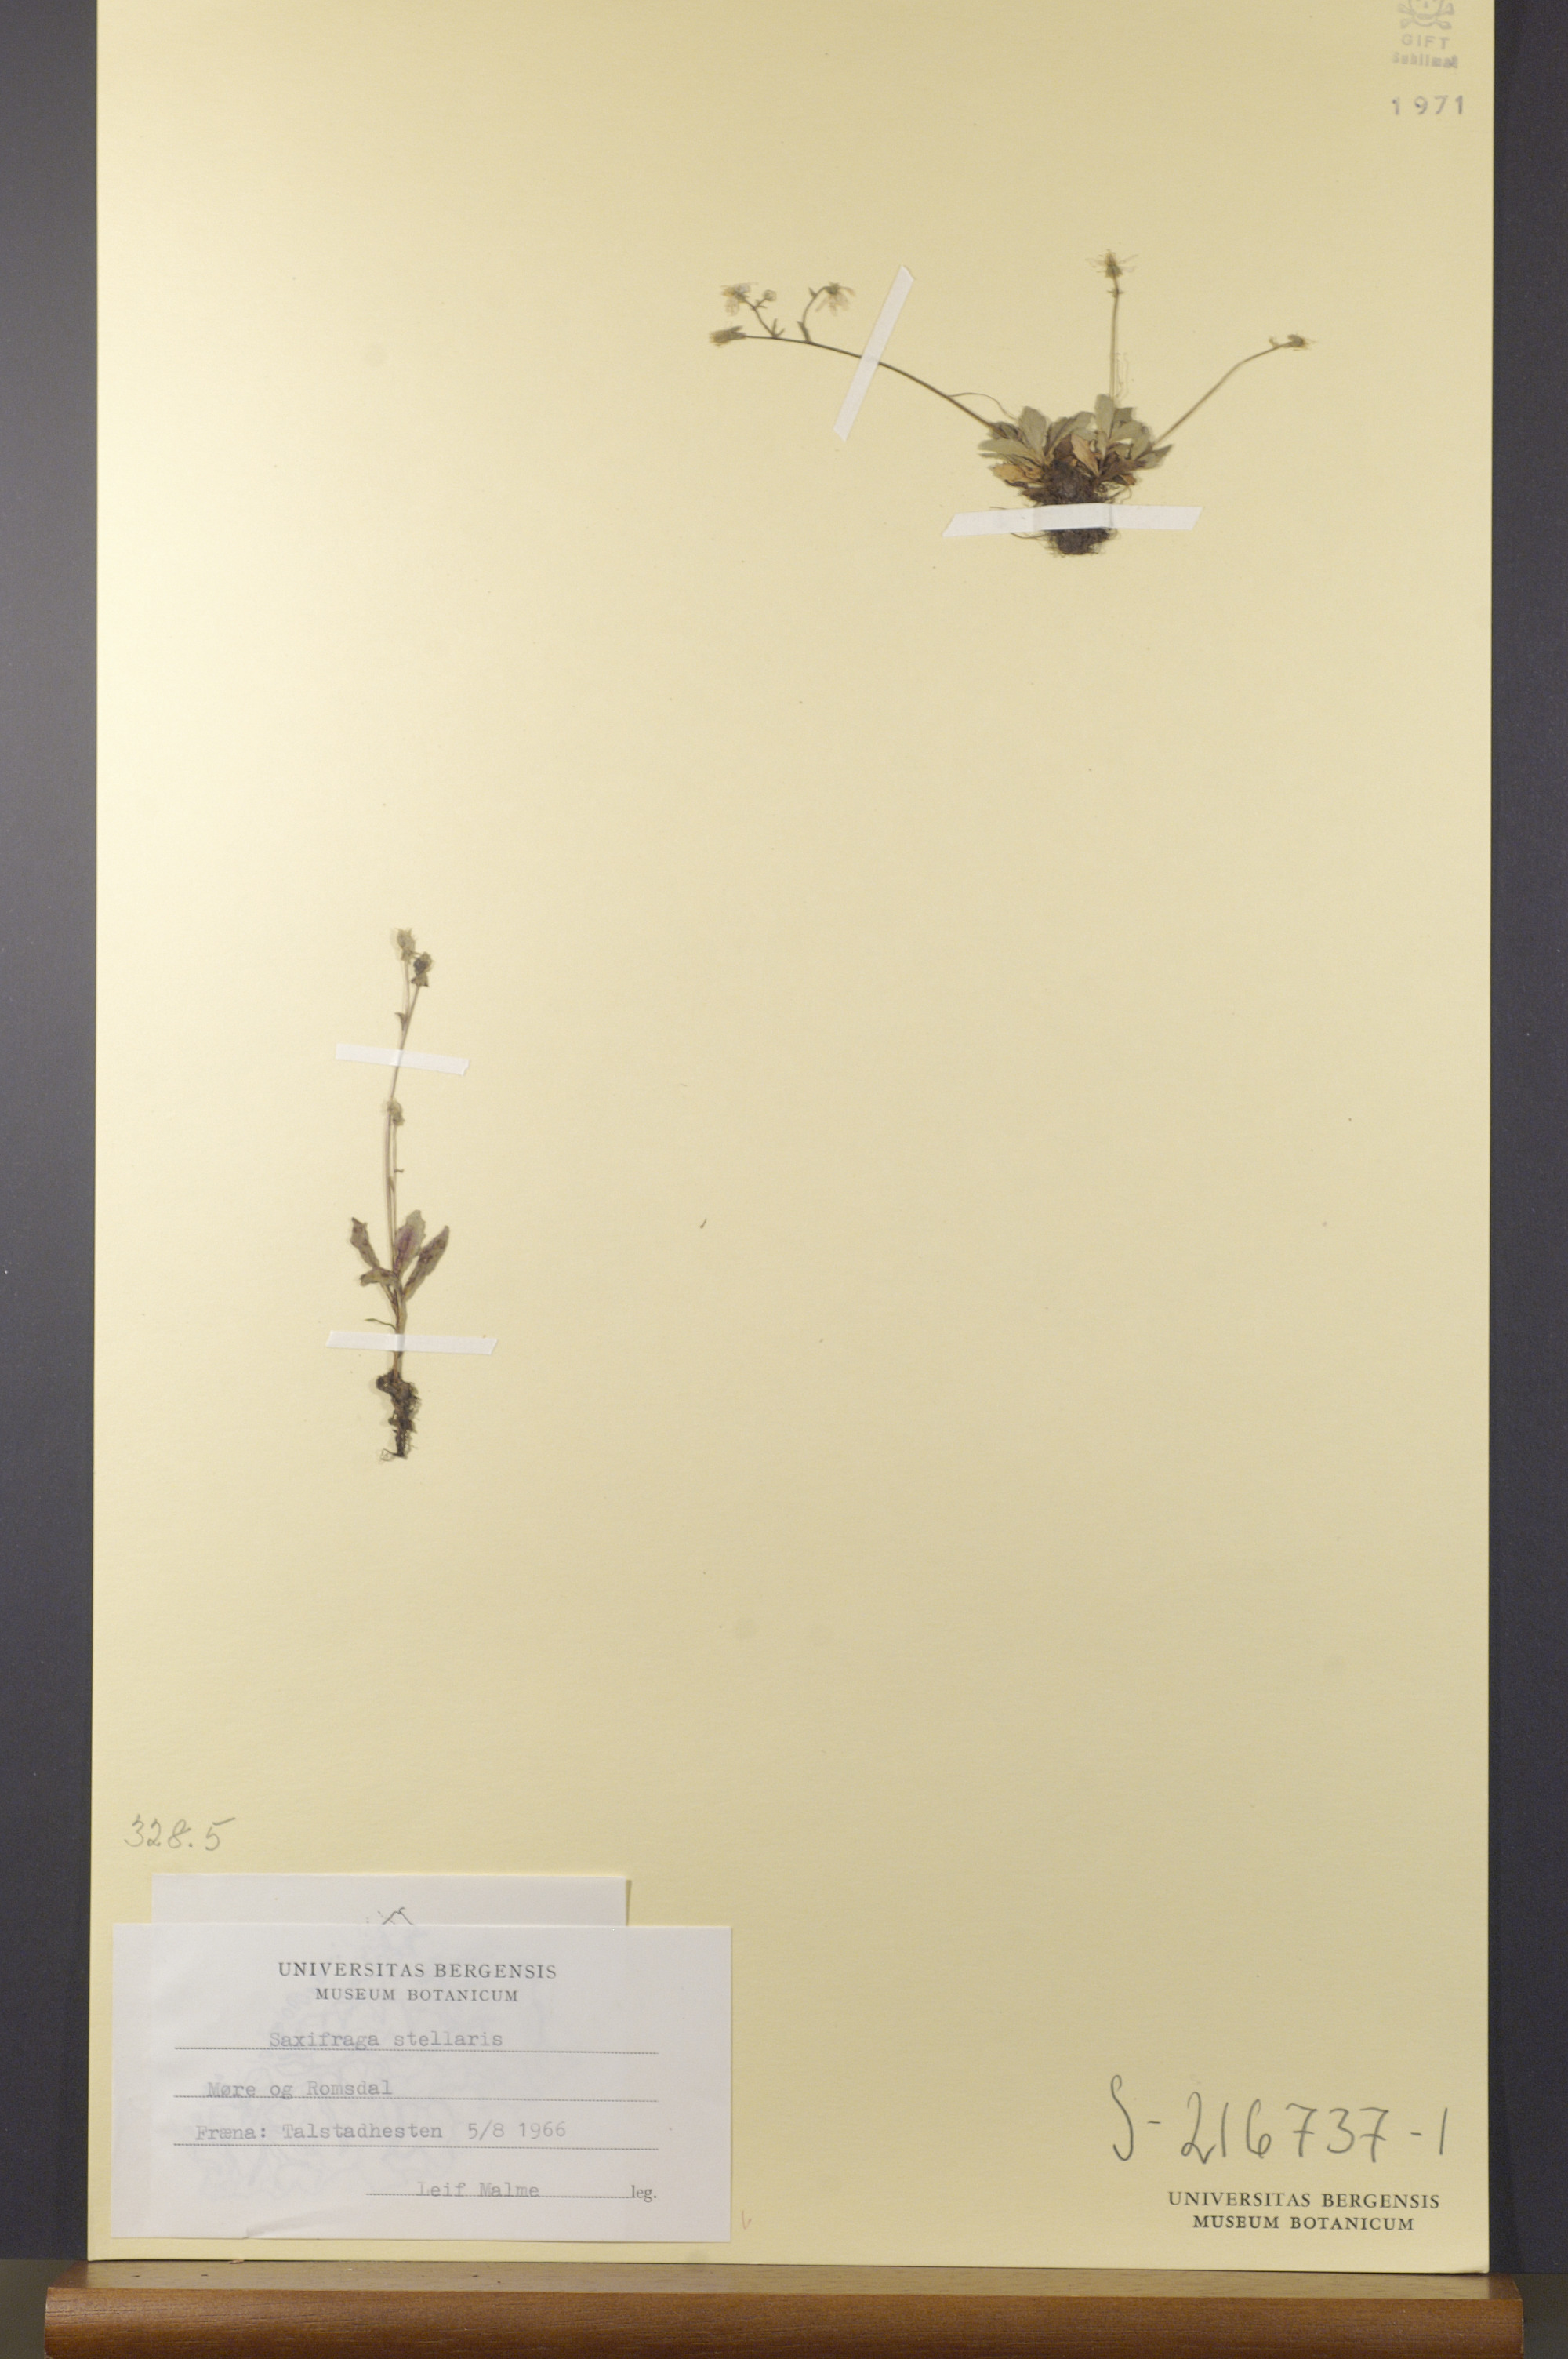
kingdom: Plantae
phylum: Tracheophyta
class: Magnoliopsida
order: Saxifragales
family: Saxifragaceae
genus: Micranthes
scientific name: Micranthes stellaris
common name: Starry saxifrage
